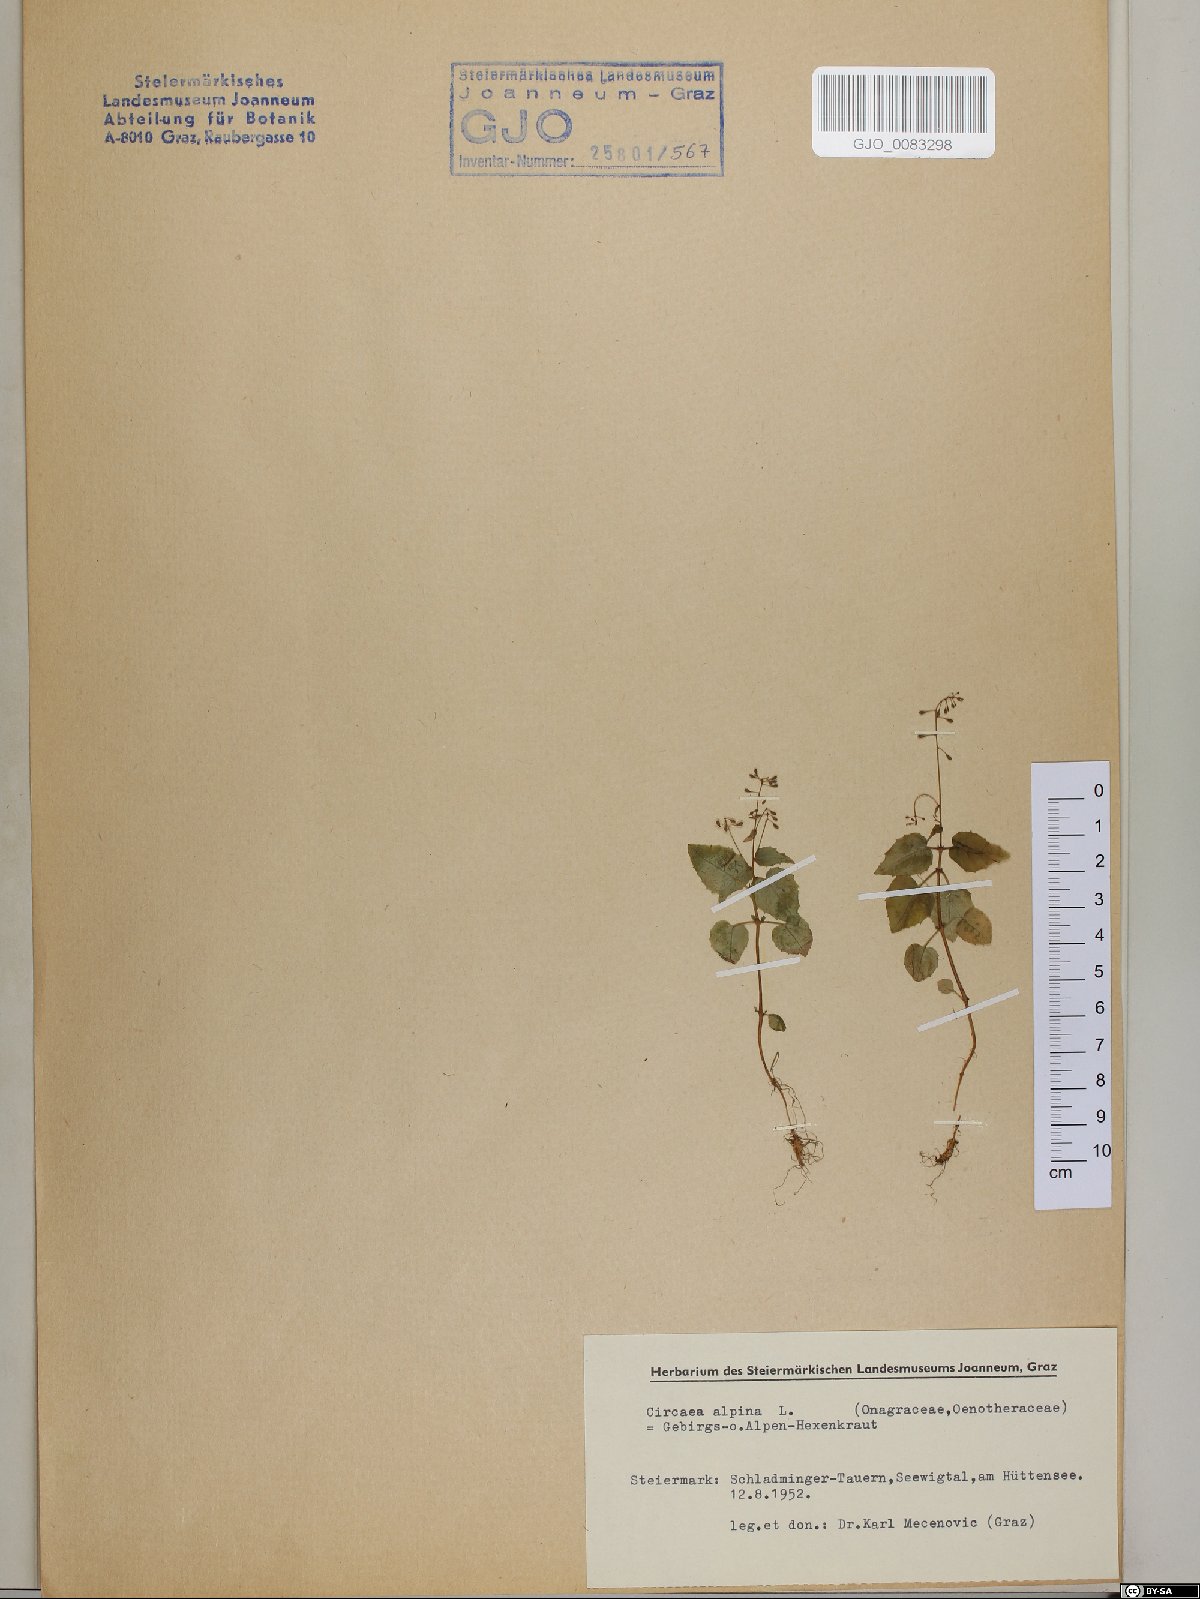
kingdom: Plantae
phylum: Tracheophyta
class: Magnoliopsida
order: Myrtales
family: Onagraceae
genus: Circaea
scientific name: Circaea alpina
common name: Alpine enchanter's-nightshade
